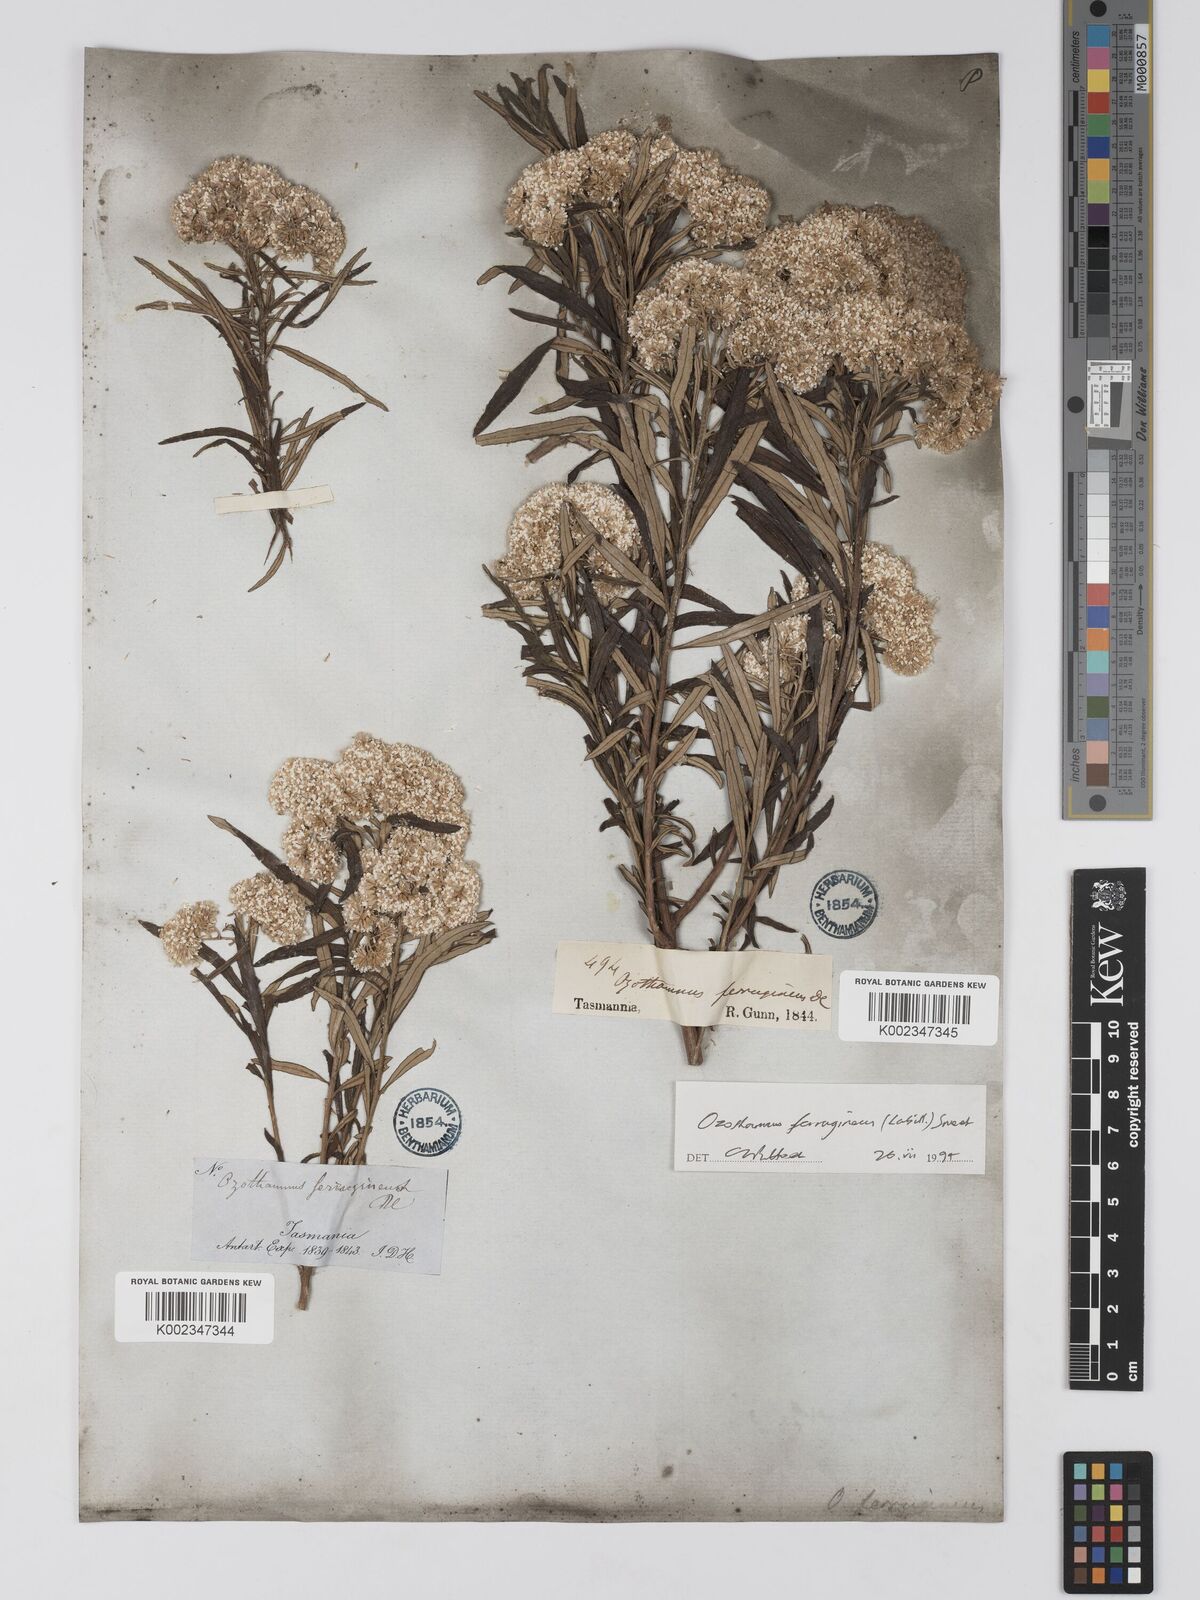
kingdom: Plantae
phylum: Tracheophyta
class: Magnoliopsida
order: Asterales
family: Asteraceae
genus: Ozothamnus
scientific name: Ozothamnus ferrugineus
